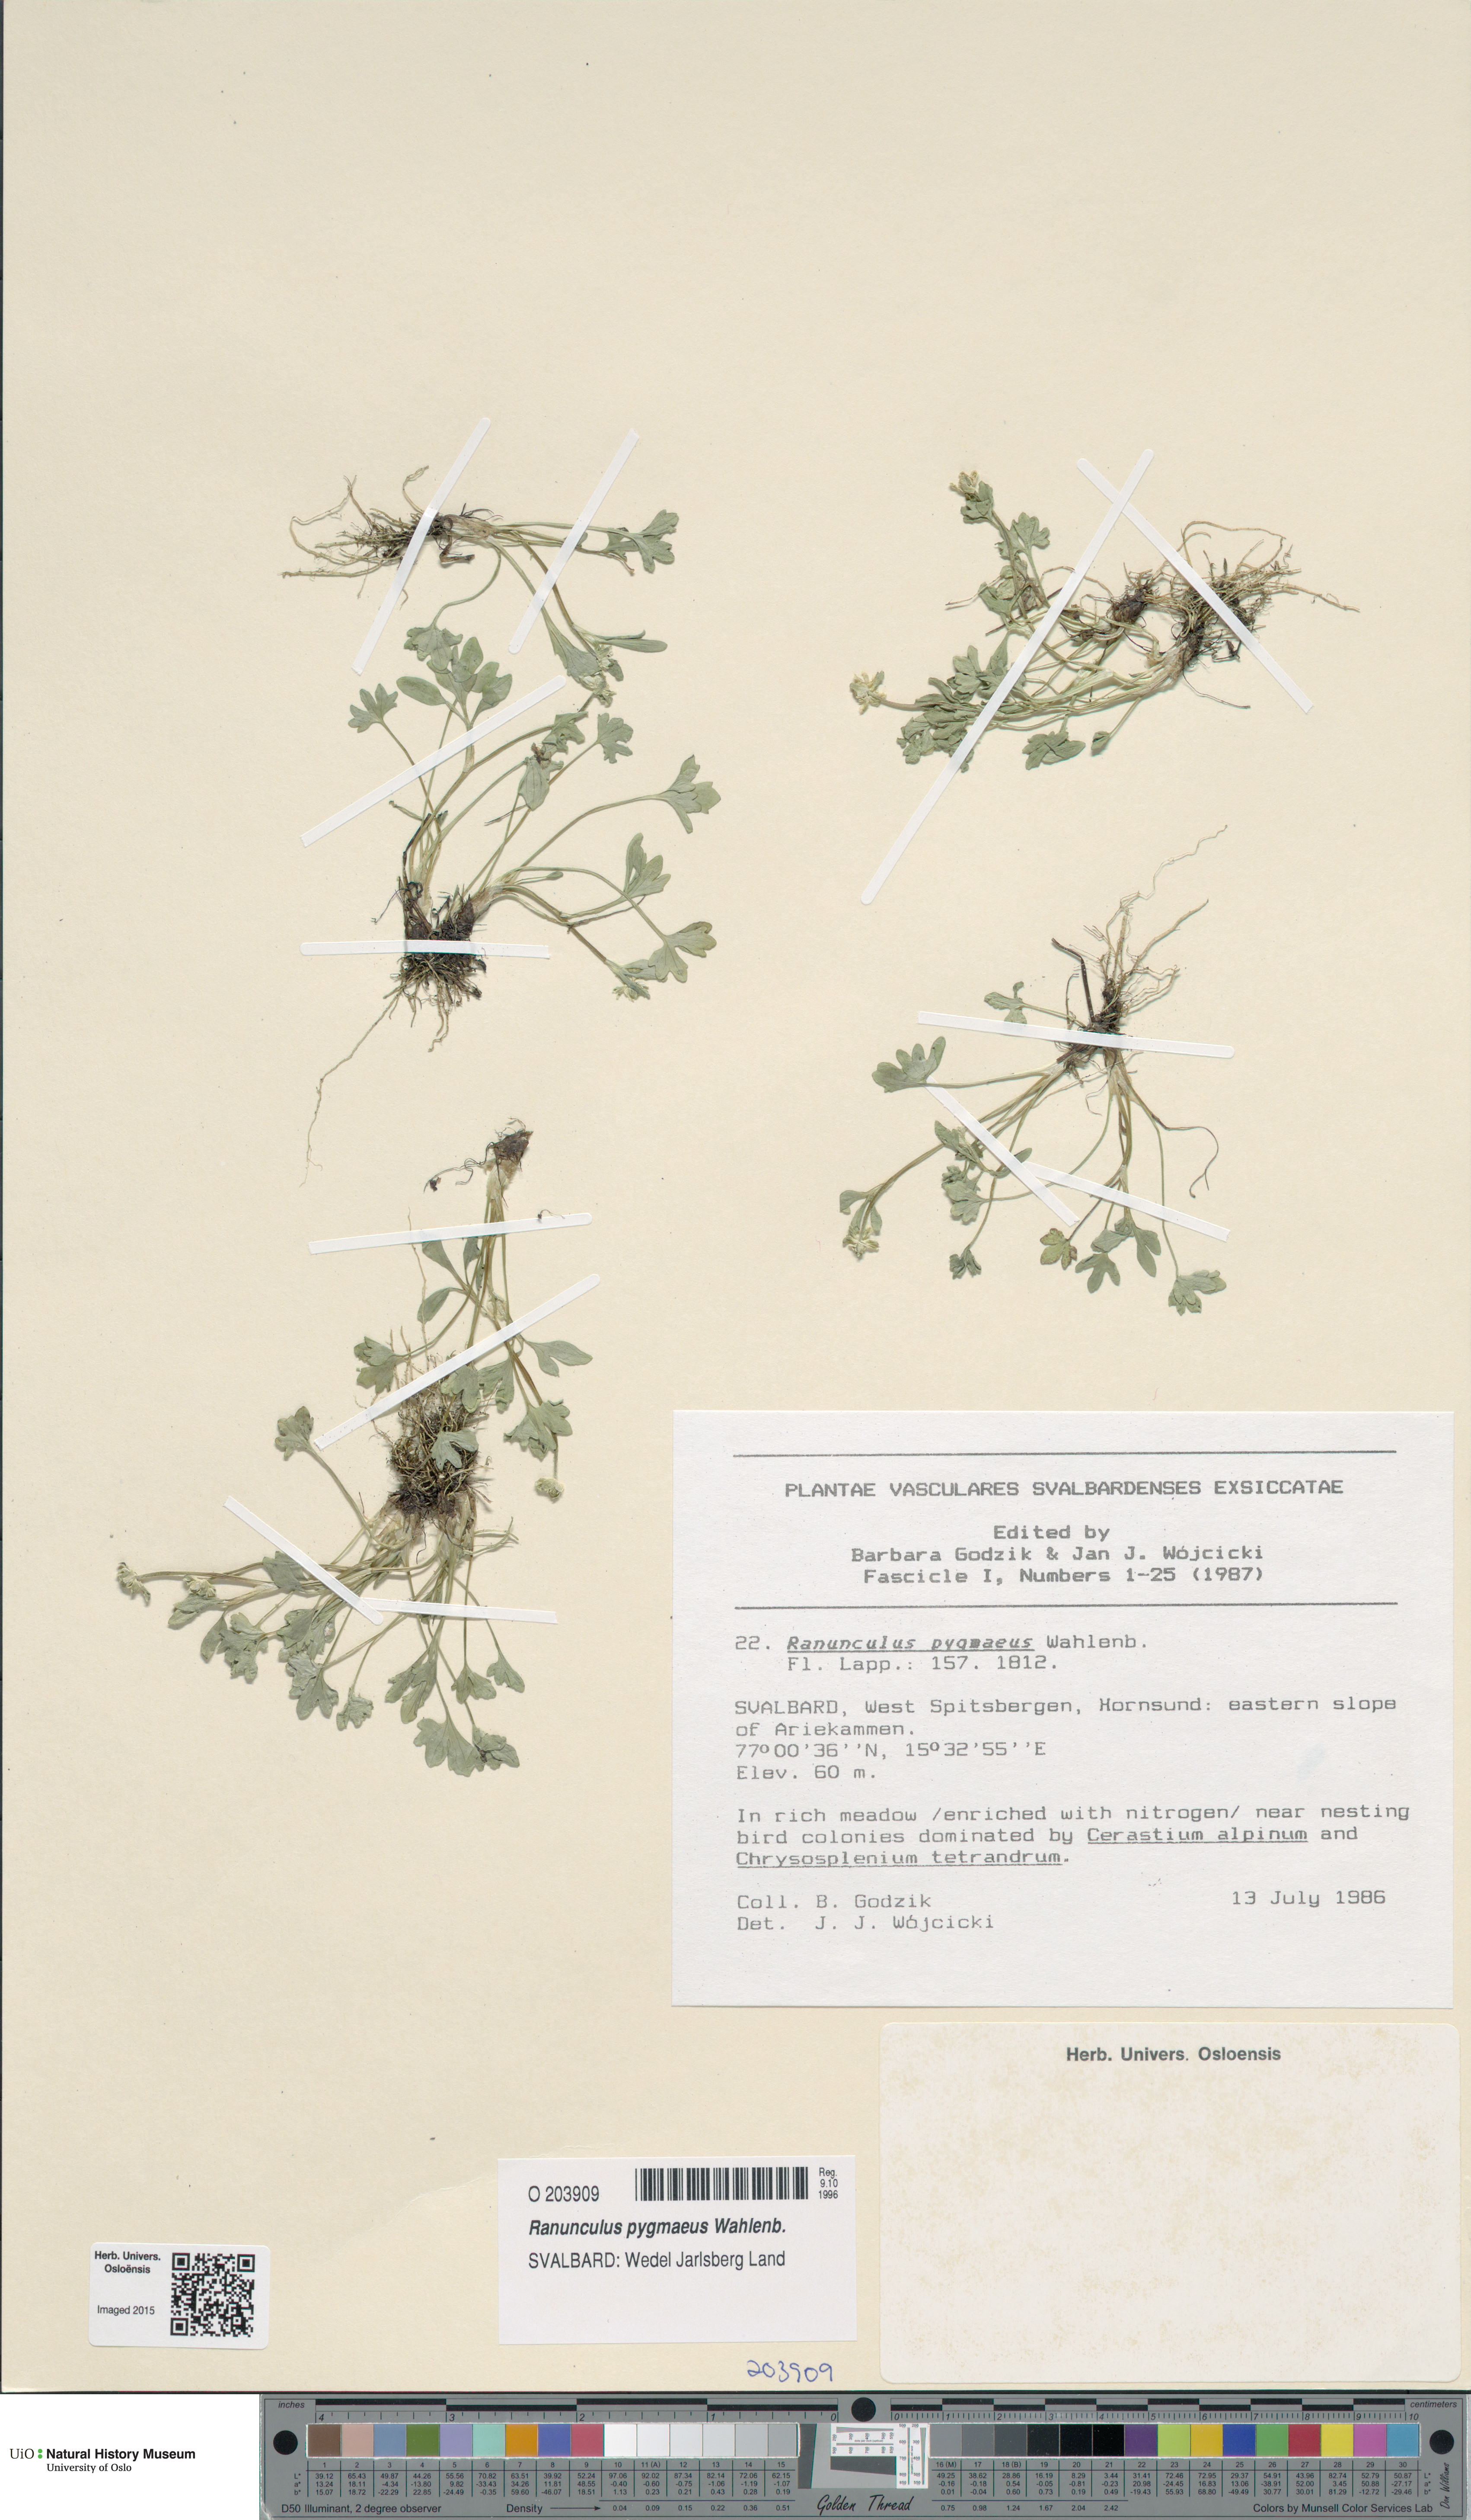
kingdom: Plantae
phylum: Tracheophyta
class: Magnoliopsida
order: Ranunculales
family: Ranunculaceae
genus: Ranunculus
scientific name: Ranunculus pygmaeus
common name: Dwarf buttercup
